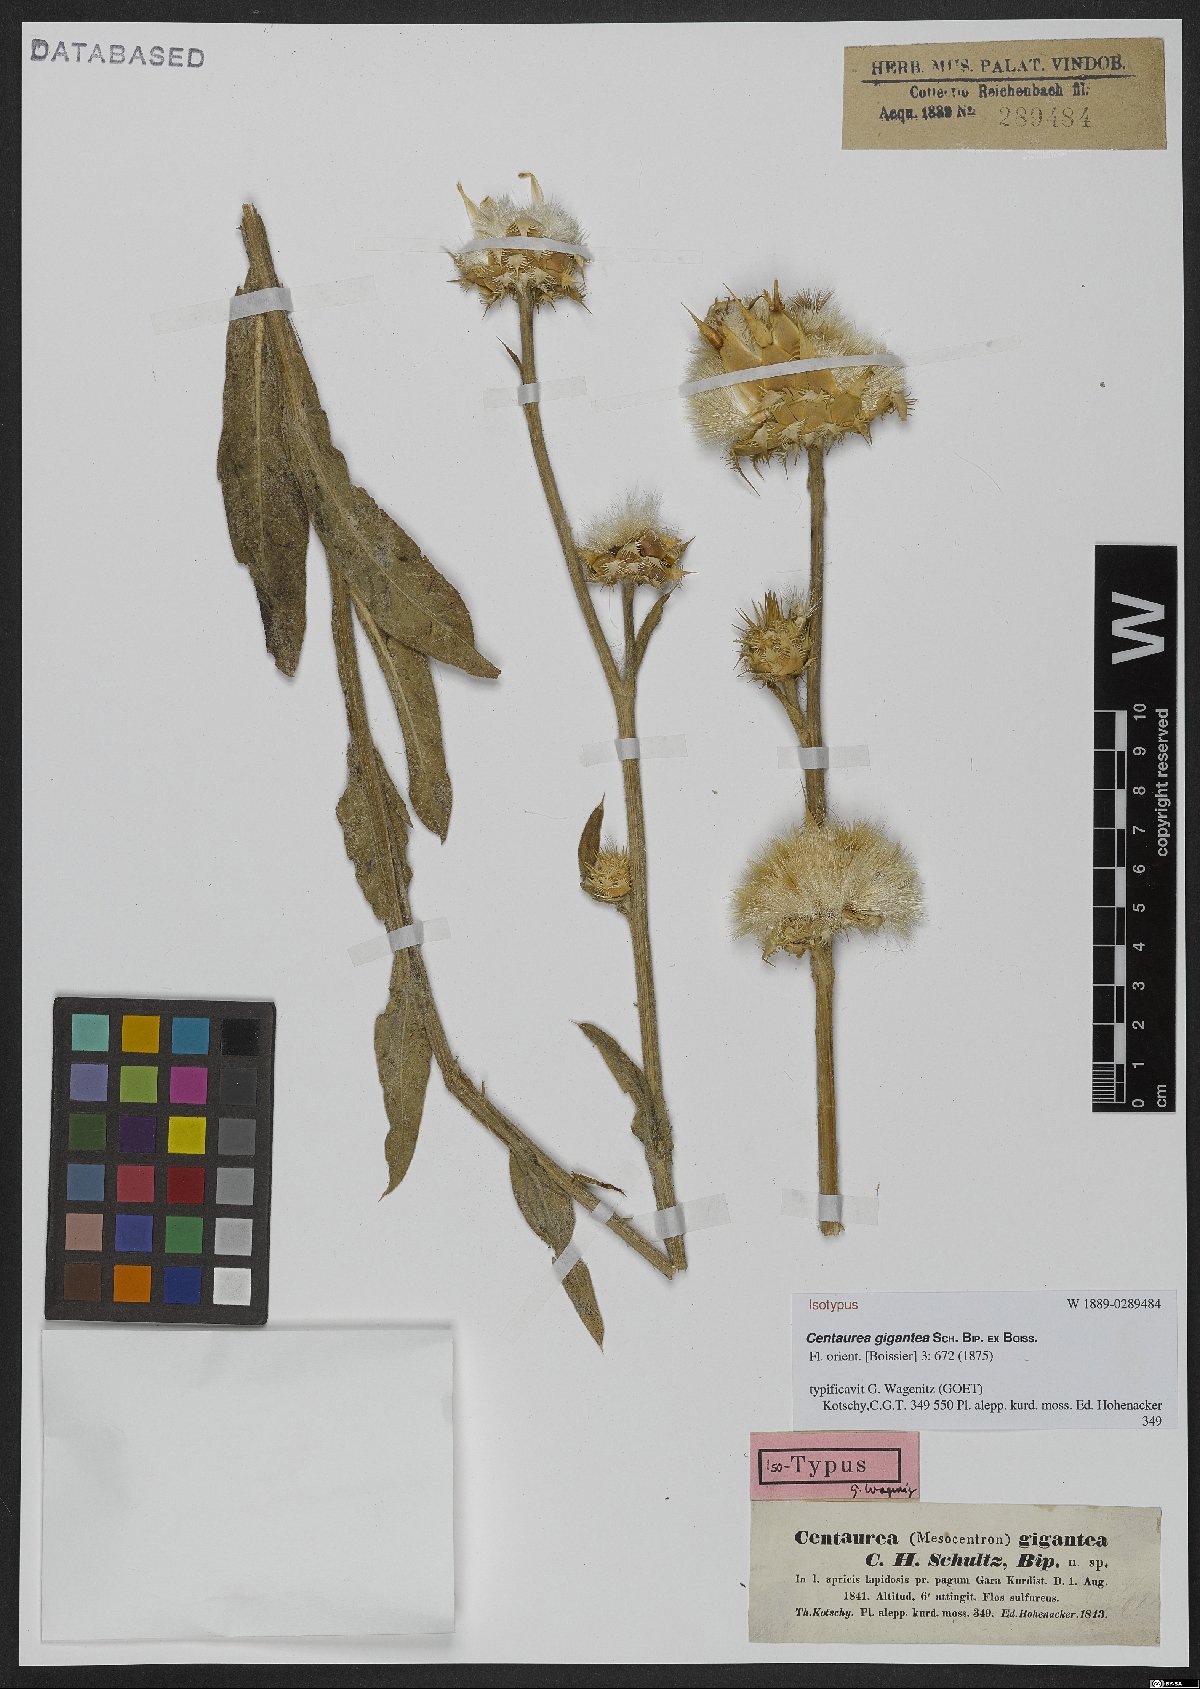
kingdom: Plantae
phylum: Tracheophyta
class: Magnoliopsida
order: Asterales
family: Asteraceae
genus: Centaurea
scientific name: Centaurea gigantea
